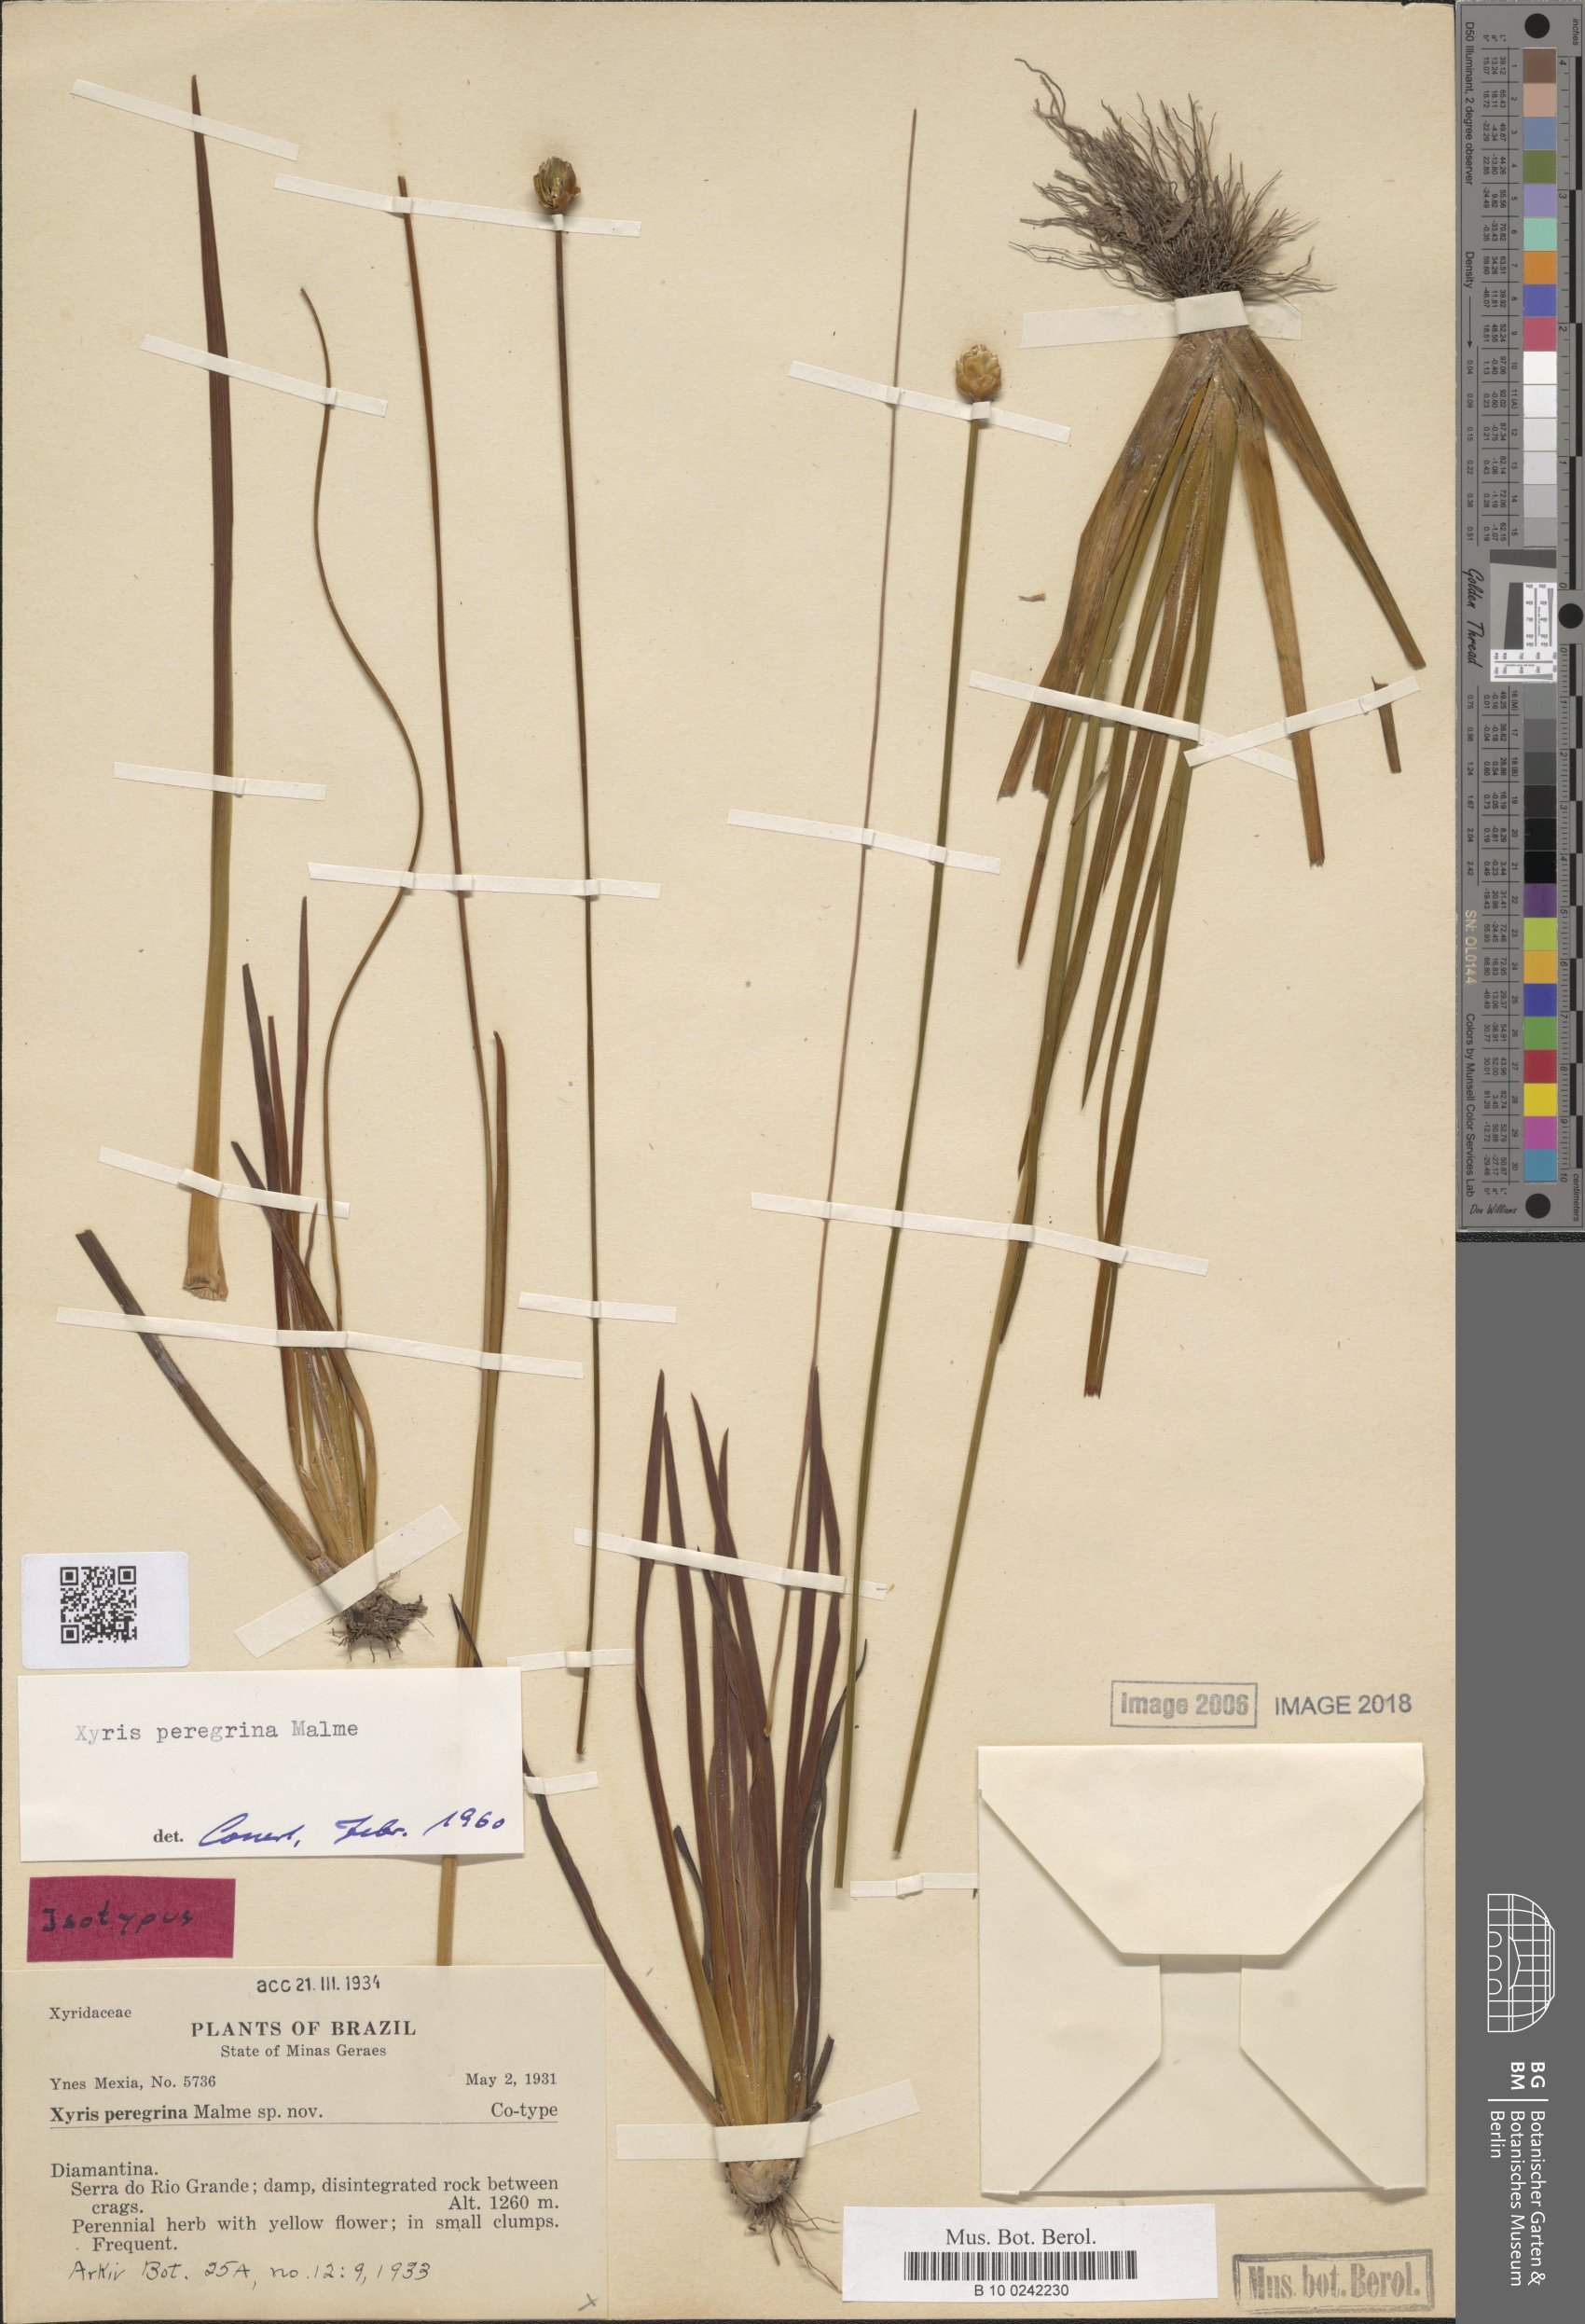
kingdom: Plantae
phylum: Tracheophyta
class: Liliopsida
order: Poales
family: Xyridaceae
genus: Xyris
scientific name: Xyris pterygoblephara
